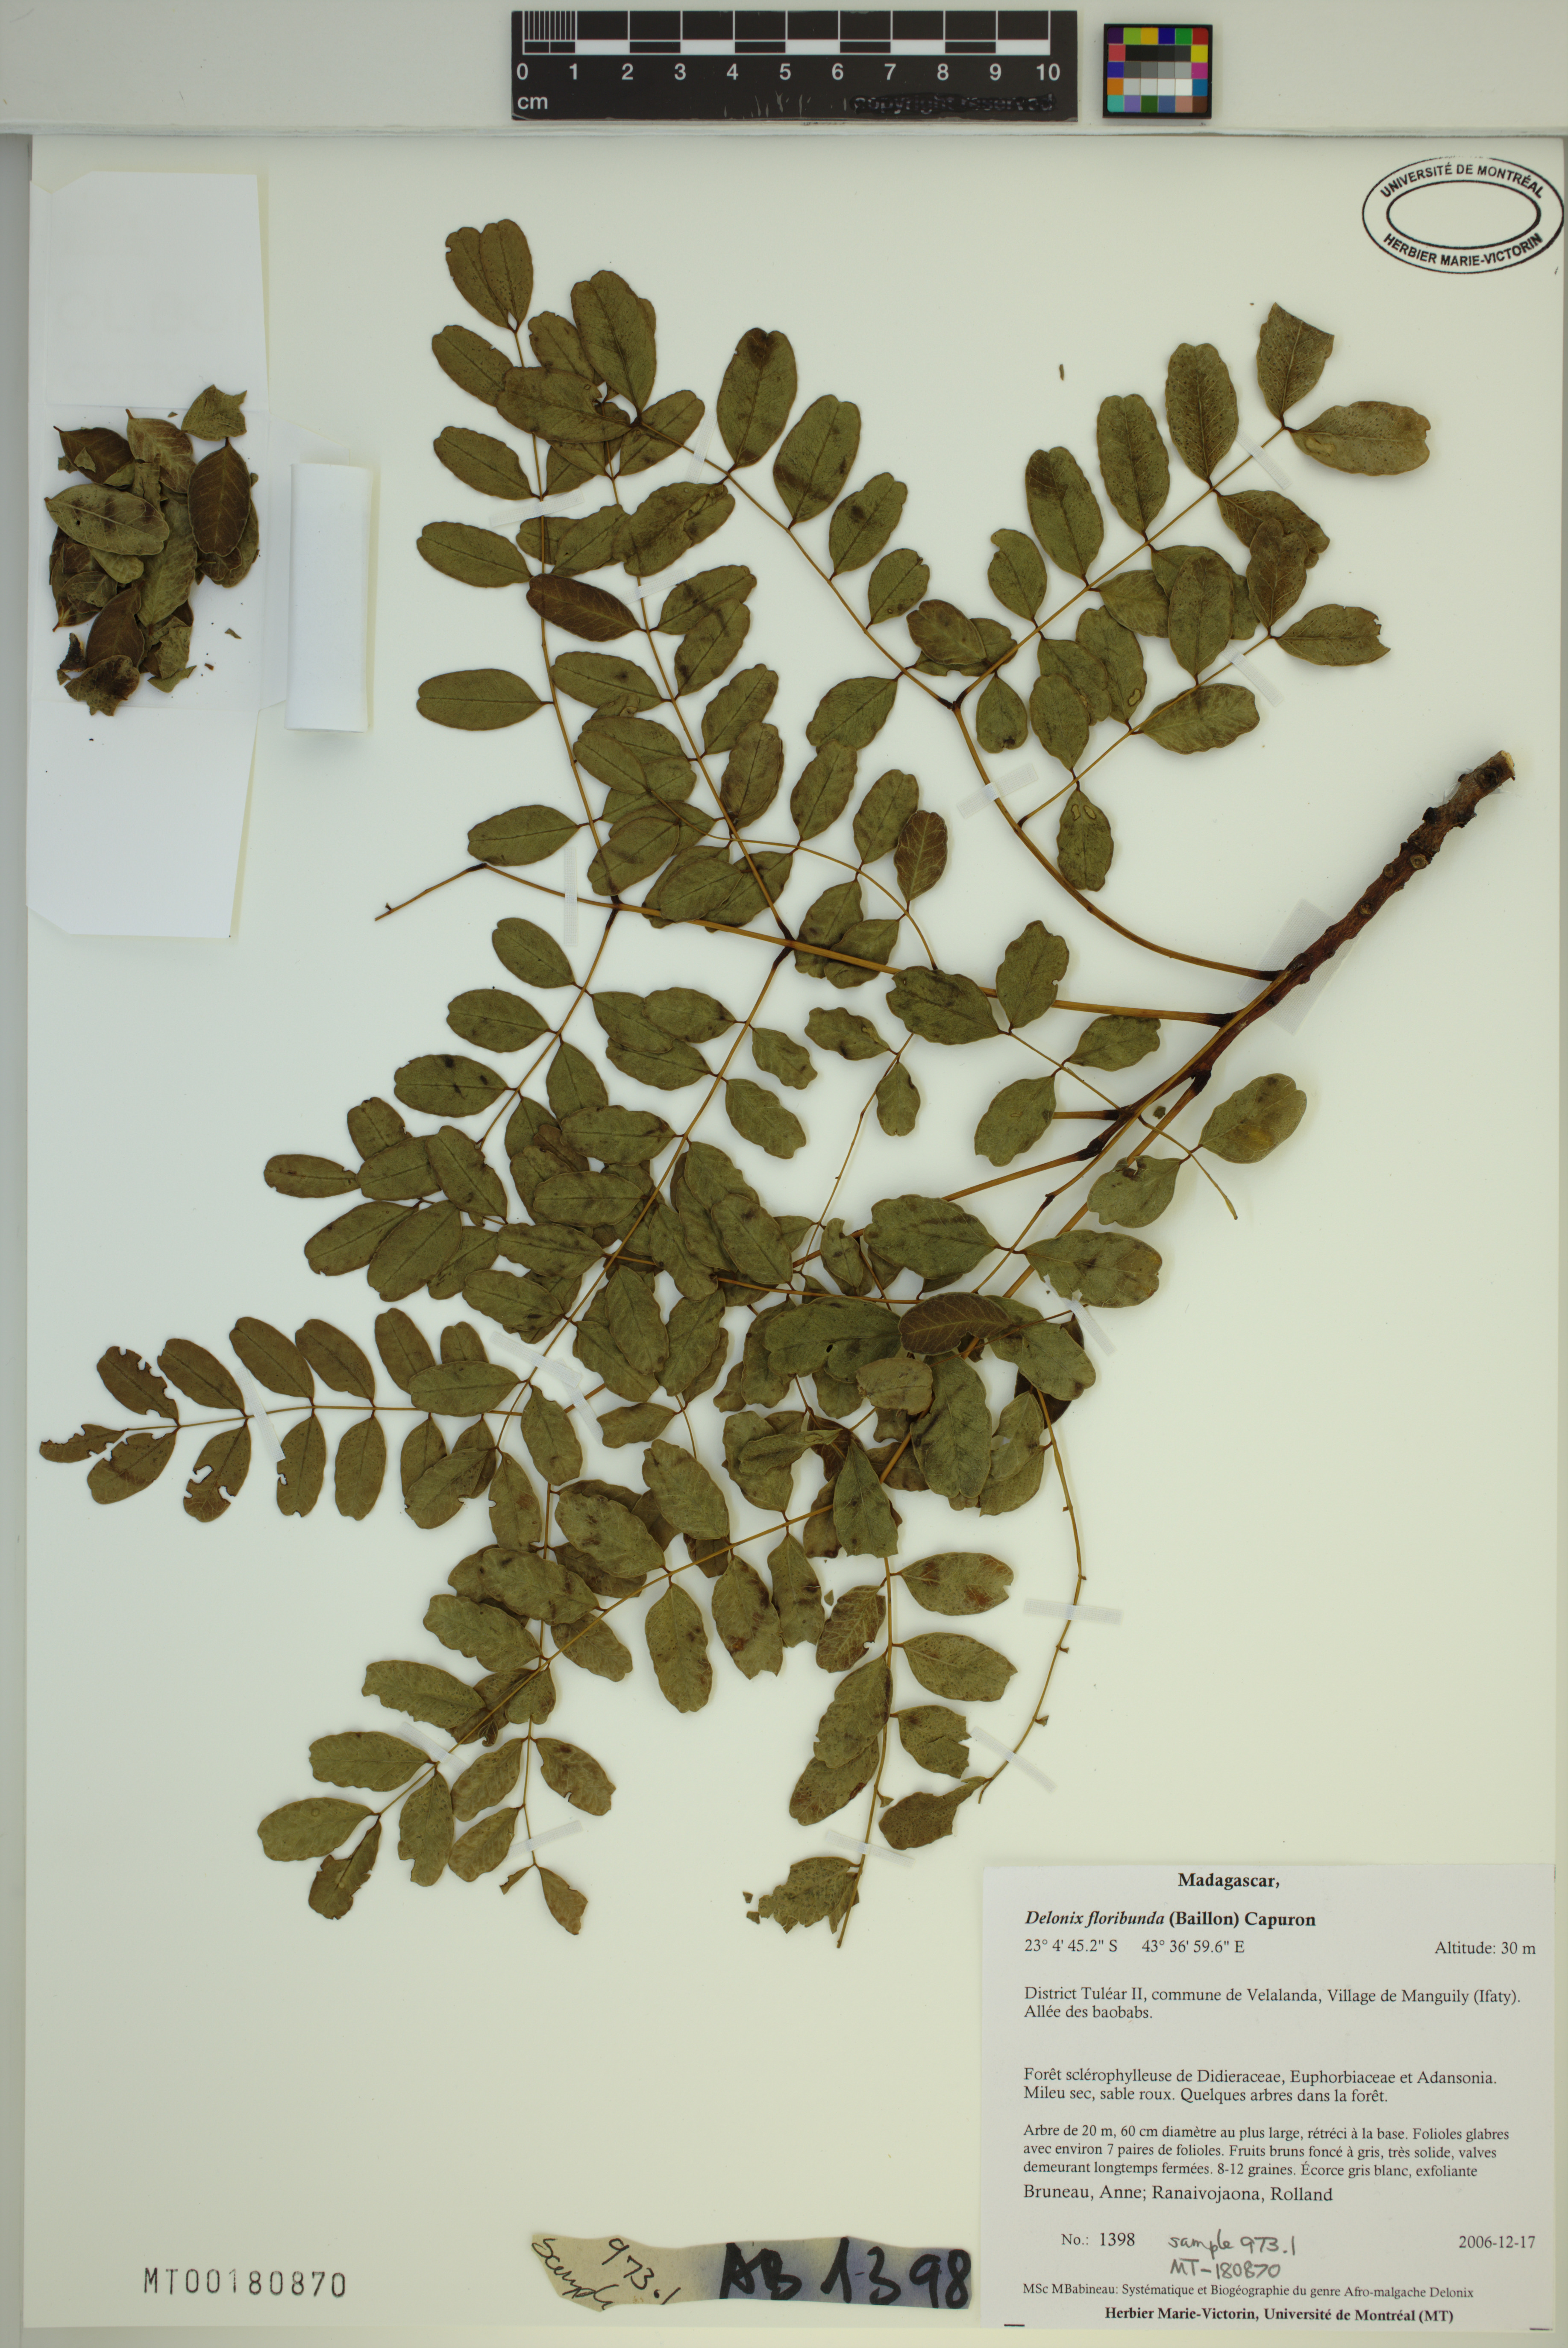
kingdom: Plantae
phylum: Tracheophyta
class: Magnoliopsida
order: Fabales
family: Fabaceae
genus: Delonix
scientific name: Delonix floribunda
